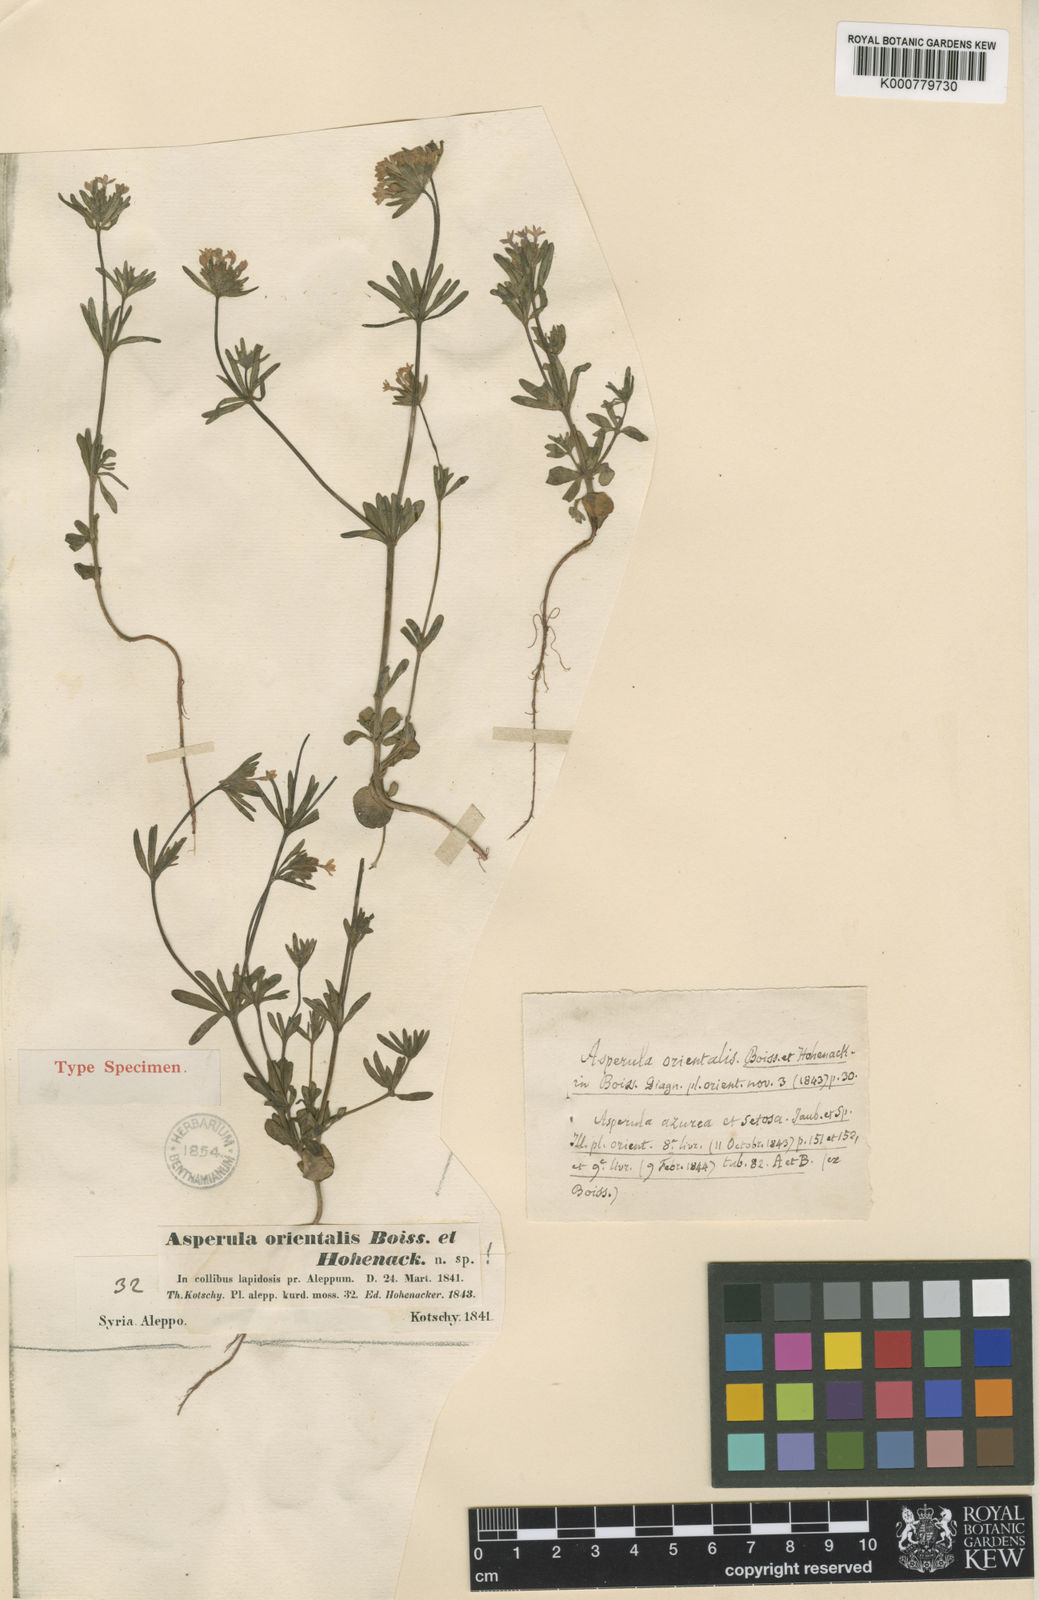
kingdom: Plantae
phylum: Tracheophyta
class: Magnoliopsida
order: Gentianales
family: Rubiaceae
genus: Asperula
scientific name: Asperula orientalis
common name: Oriental asperula
